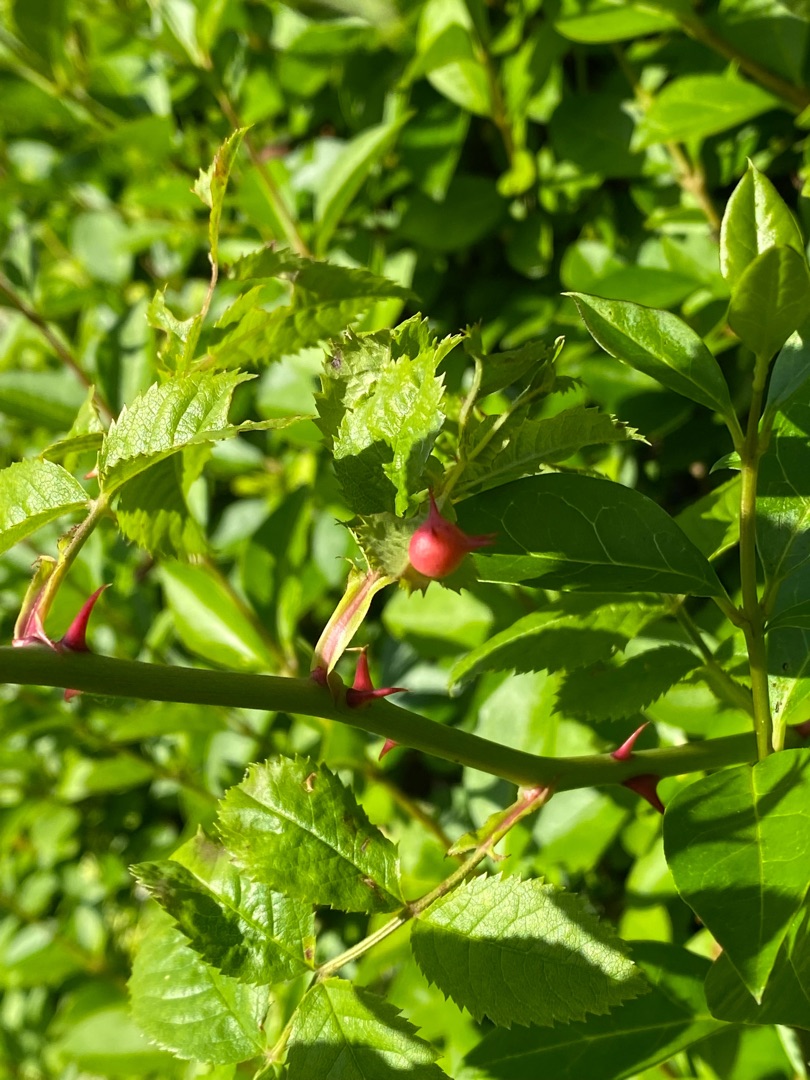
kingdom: Animalia
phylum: Arthropoda
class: Insecta
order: Hymenoptera
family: Cynipidae
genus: Diplolepis
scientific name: Diplolepis nervosa
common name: Morgenstjernegalhveps
